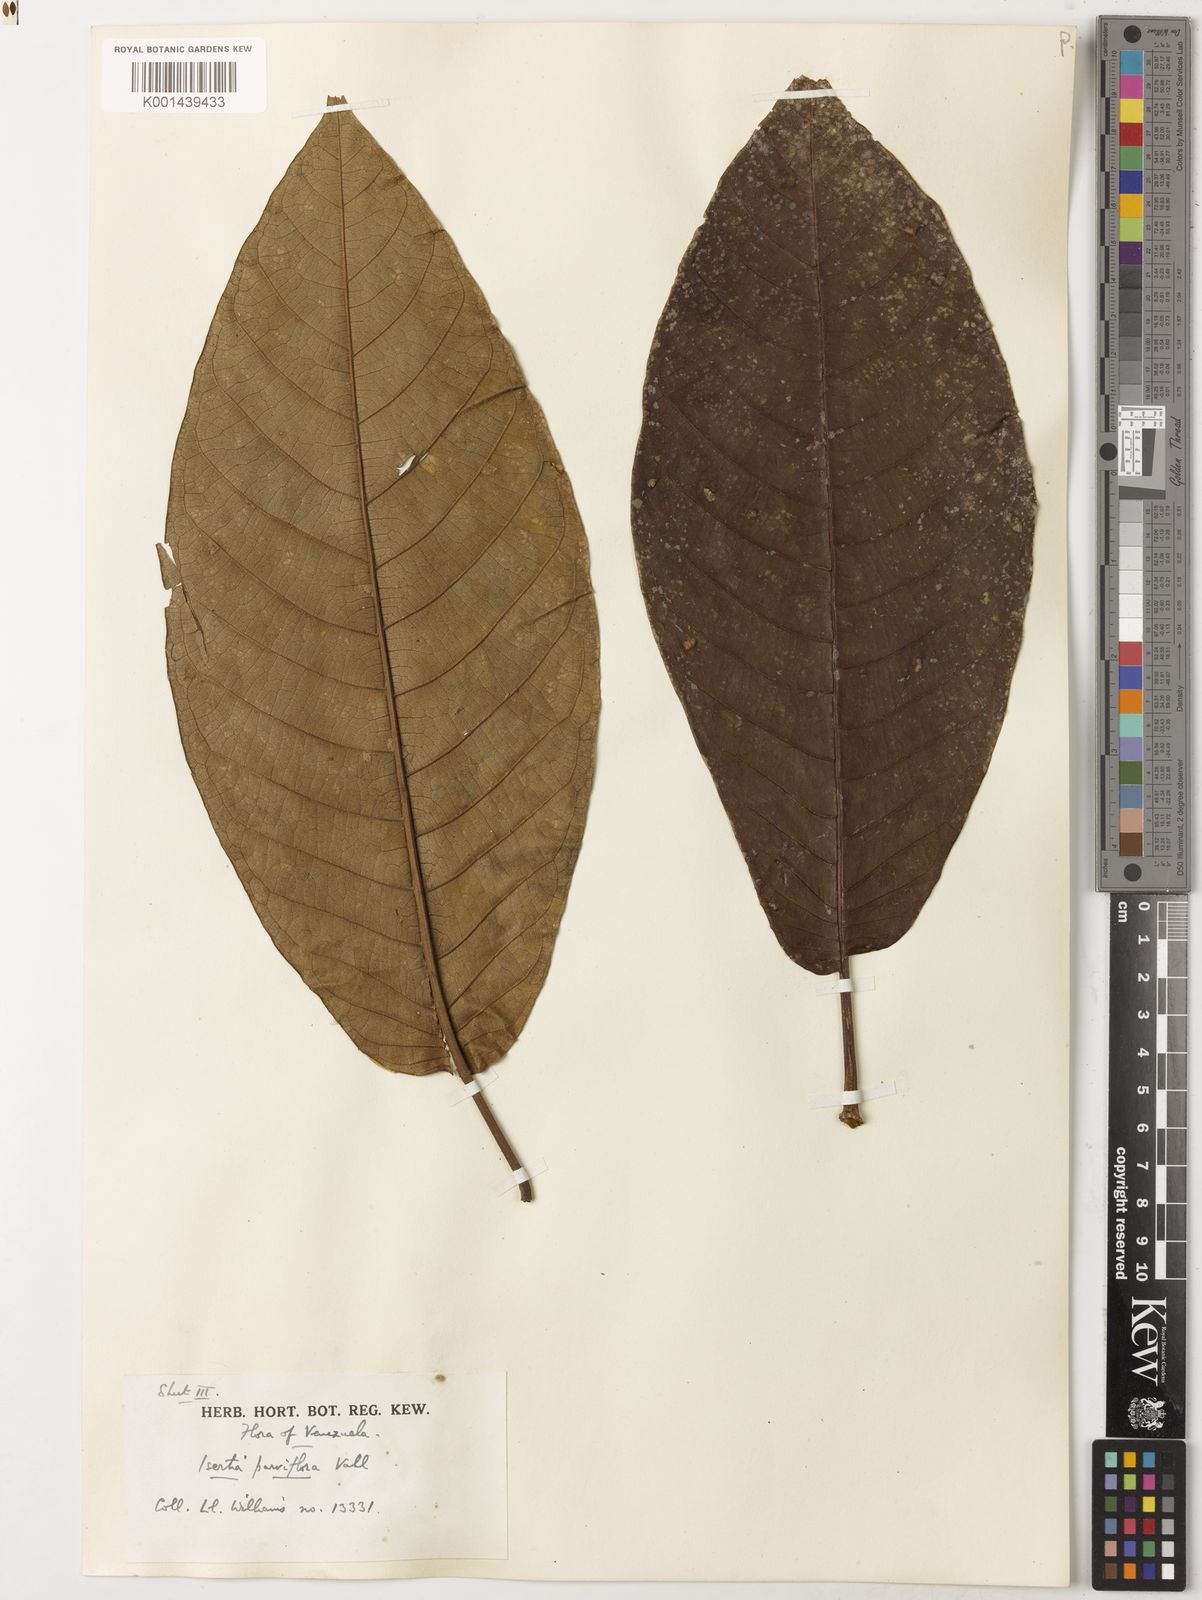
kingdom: Plantae
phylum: Tracheophyta
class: Magnoliopsida
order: Gentianales
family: Rubiaceae
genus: Isertia
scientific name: Isertia parviflora
